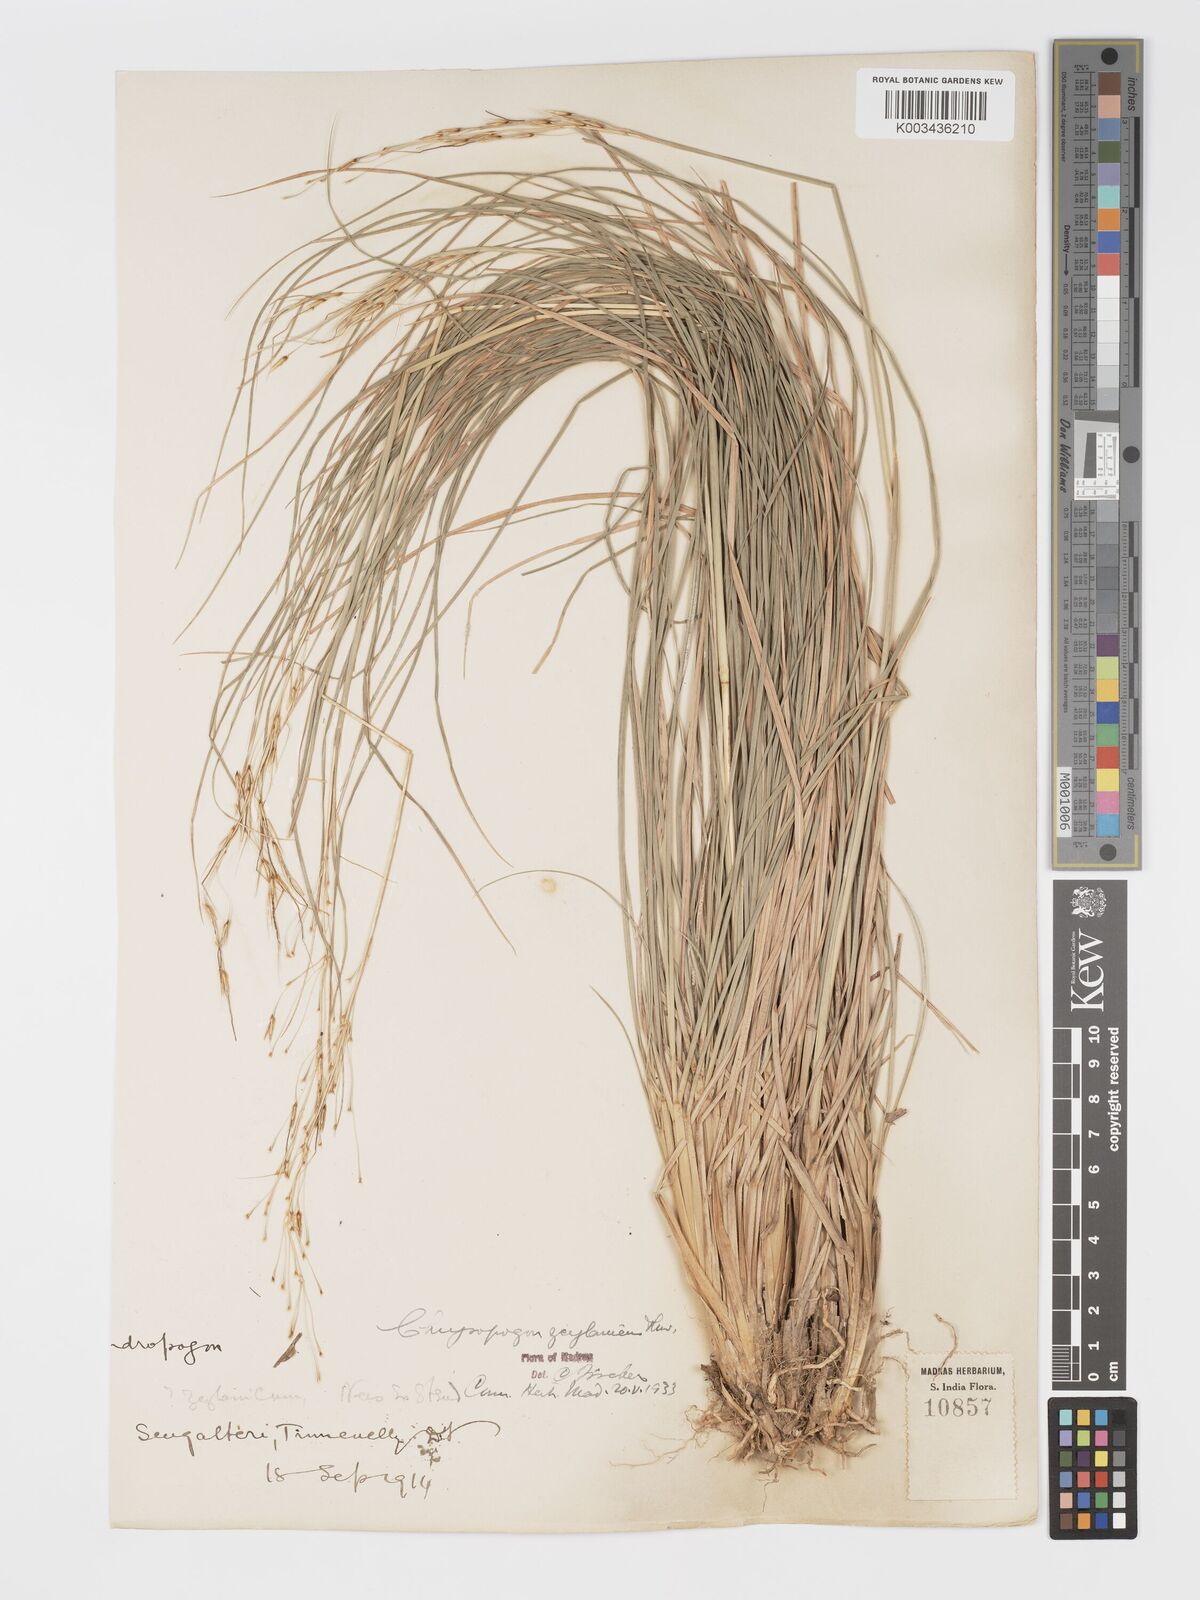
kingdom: Plantae
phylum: Tracheophyta
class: Liliopsida
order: Poales
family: Poaceae
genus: Chrysopogon
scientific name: Chrysopogon nodulibarbis
